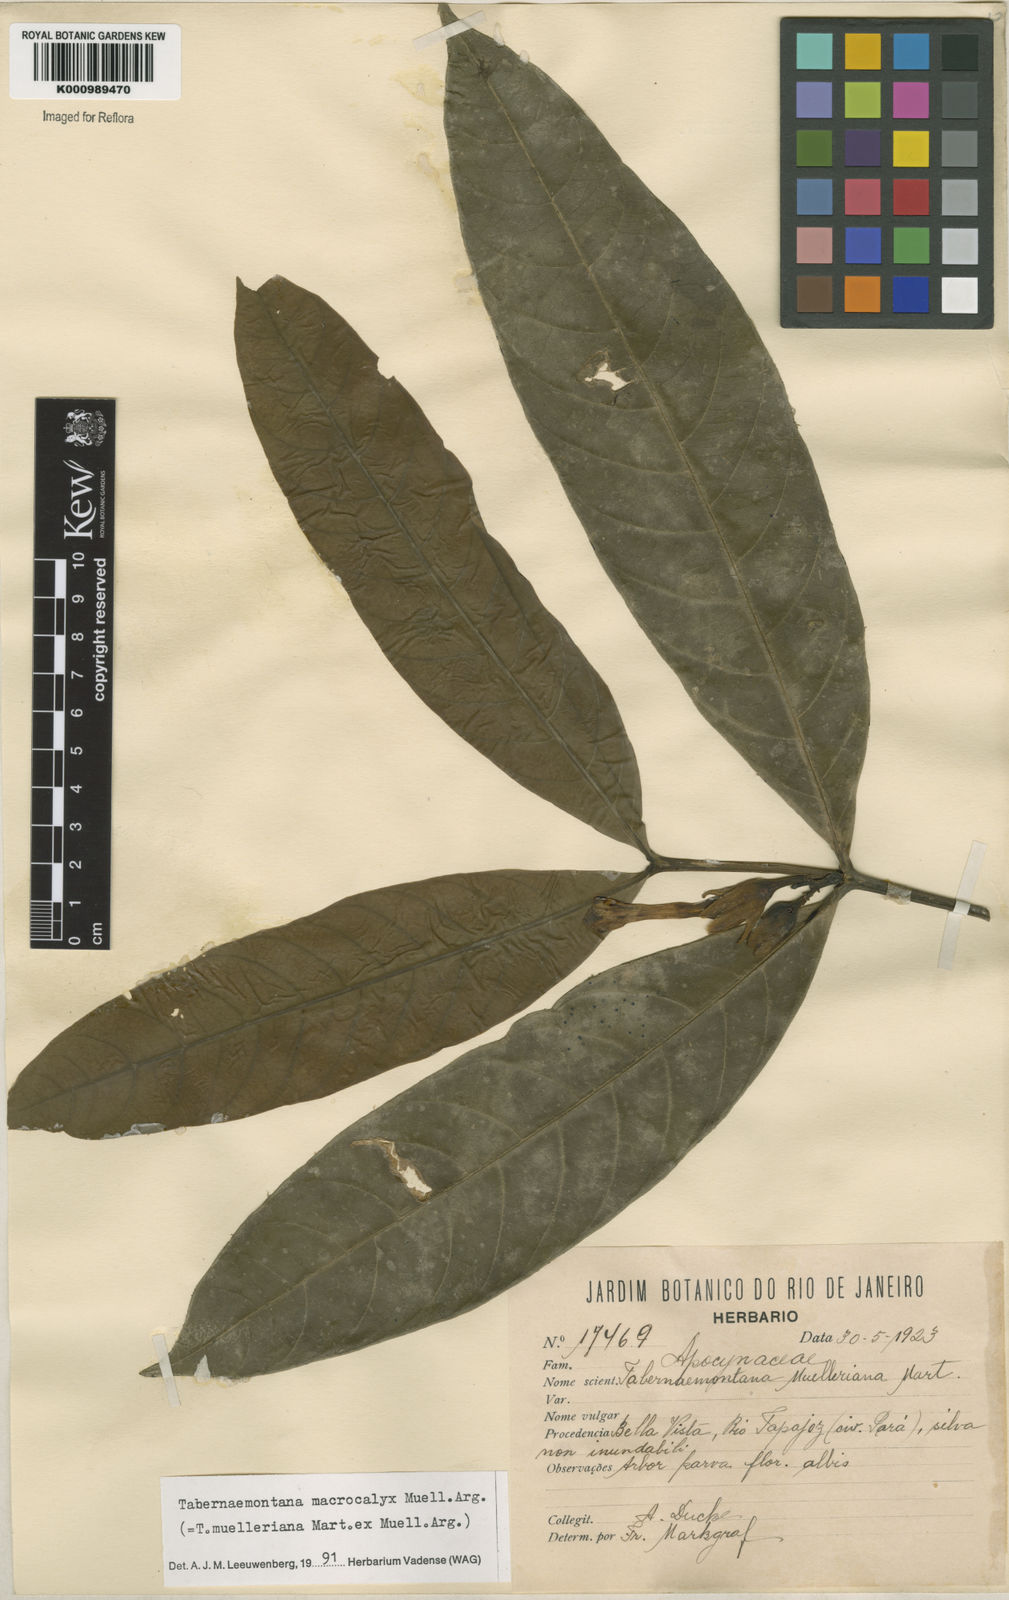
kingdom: Plantae
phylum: Tracheophyta
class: Magnoliopsida
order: Gentianales
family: Apocynaceae
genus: Tabernaemontana
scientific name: Tabernaemontana
